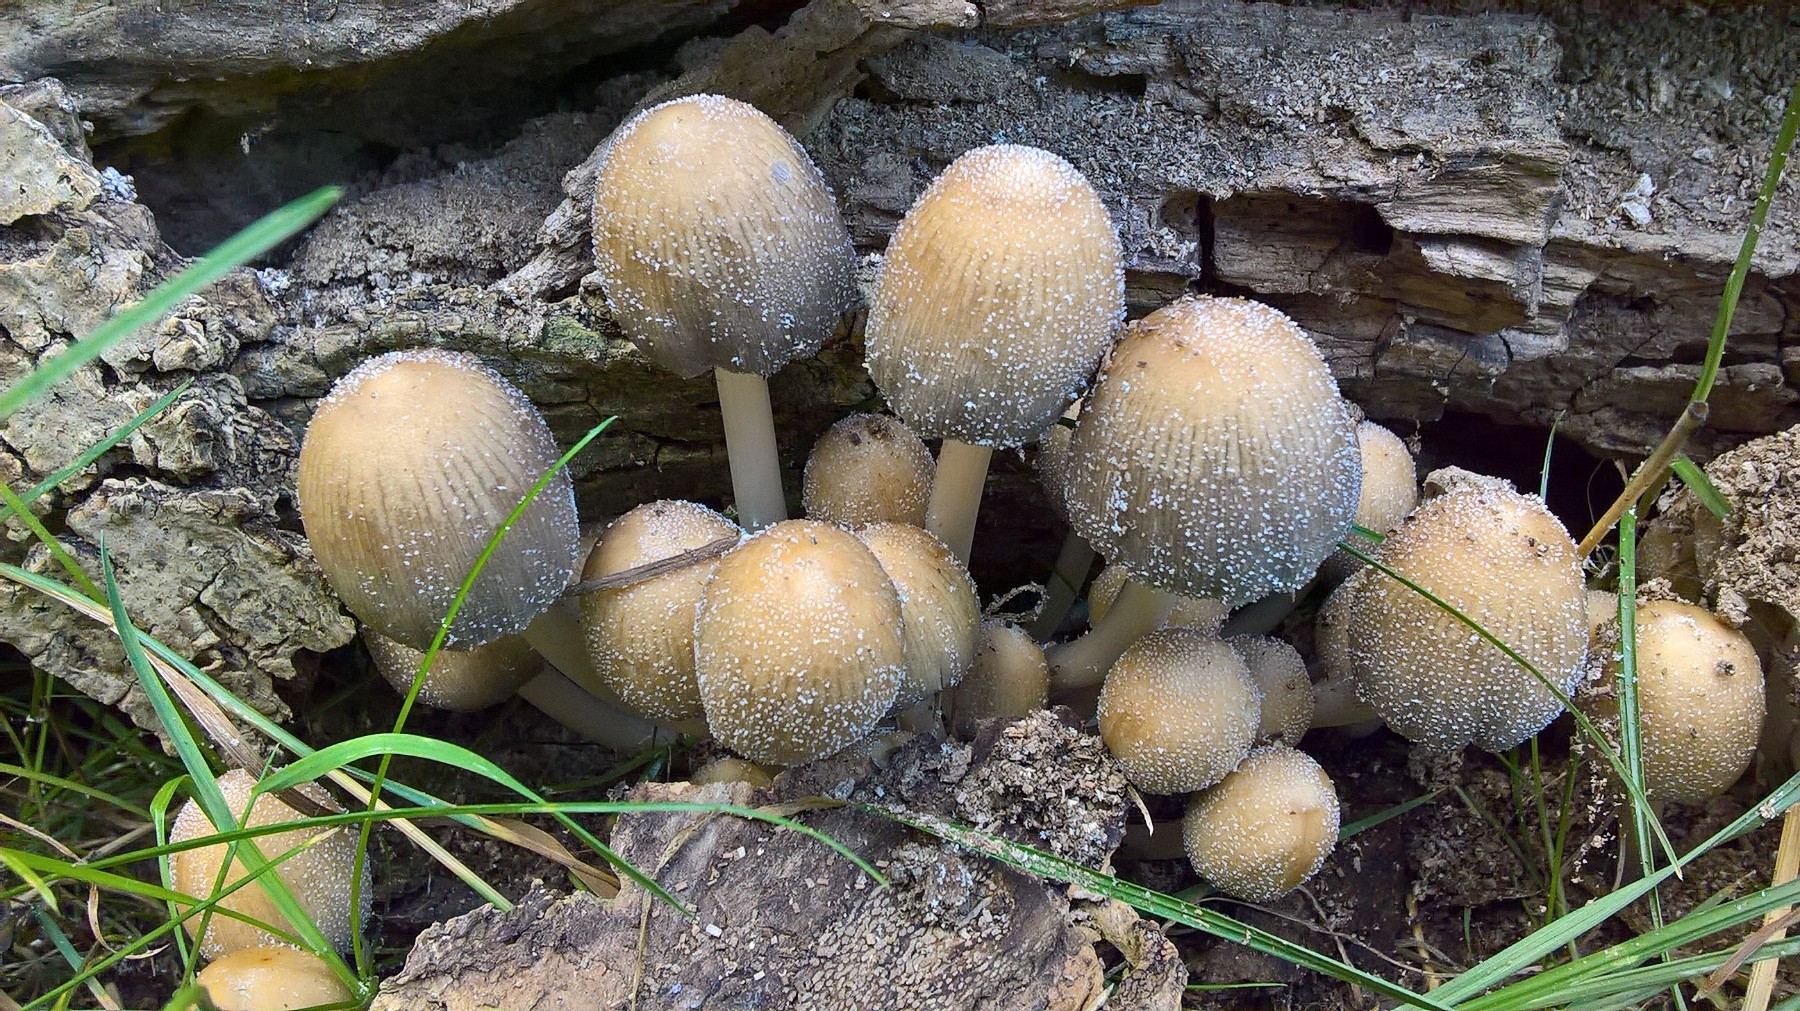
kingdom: Fungi
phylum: Basidiomycota
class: Agaricomycetes
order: Agaricales
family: Psathyrellaceae
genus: Coprinellus
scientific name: Coprinellus micaceus
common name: glimmer-blækhat
